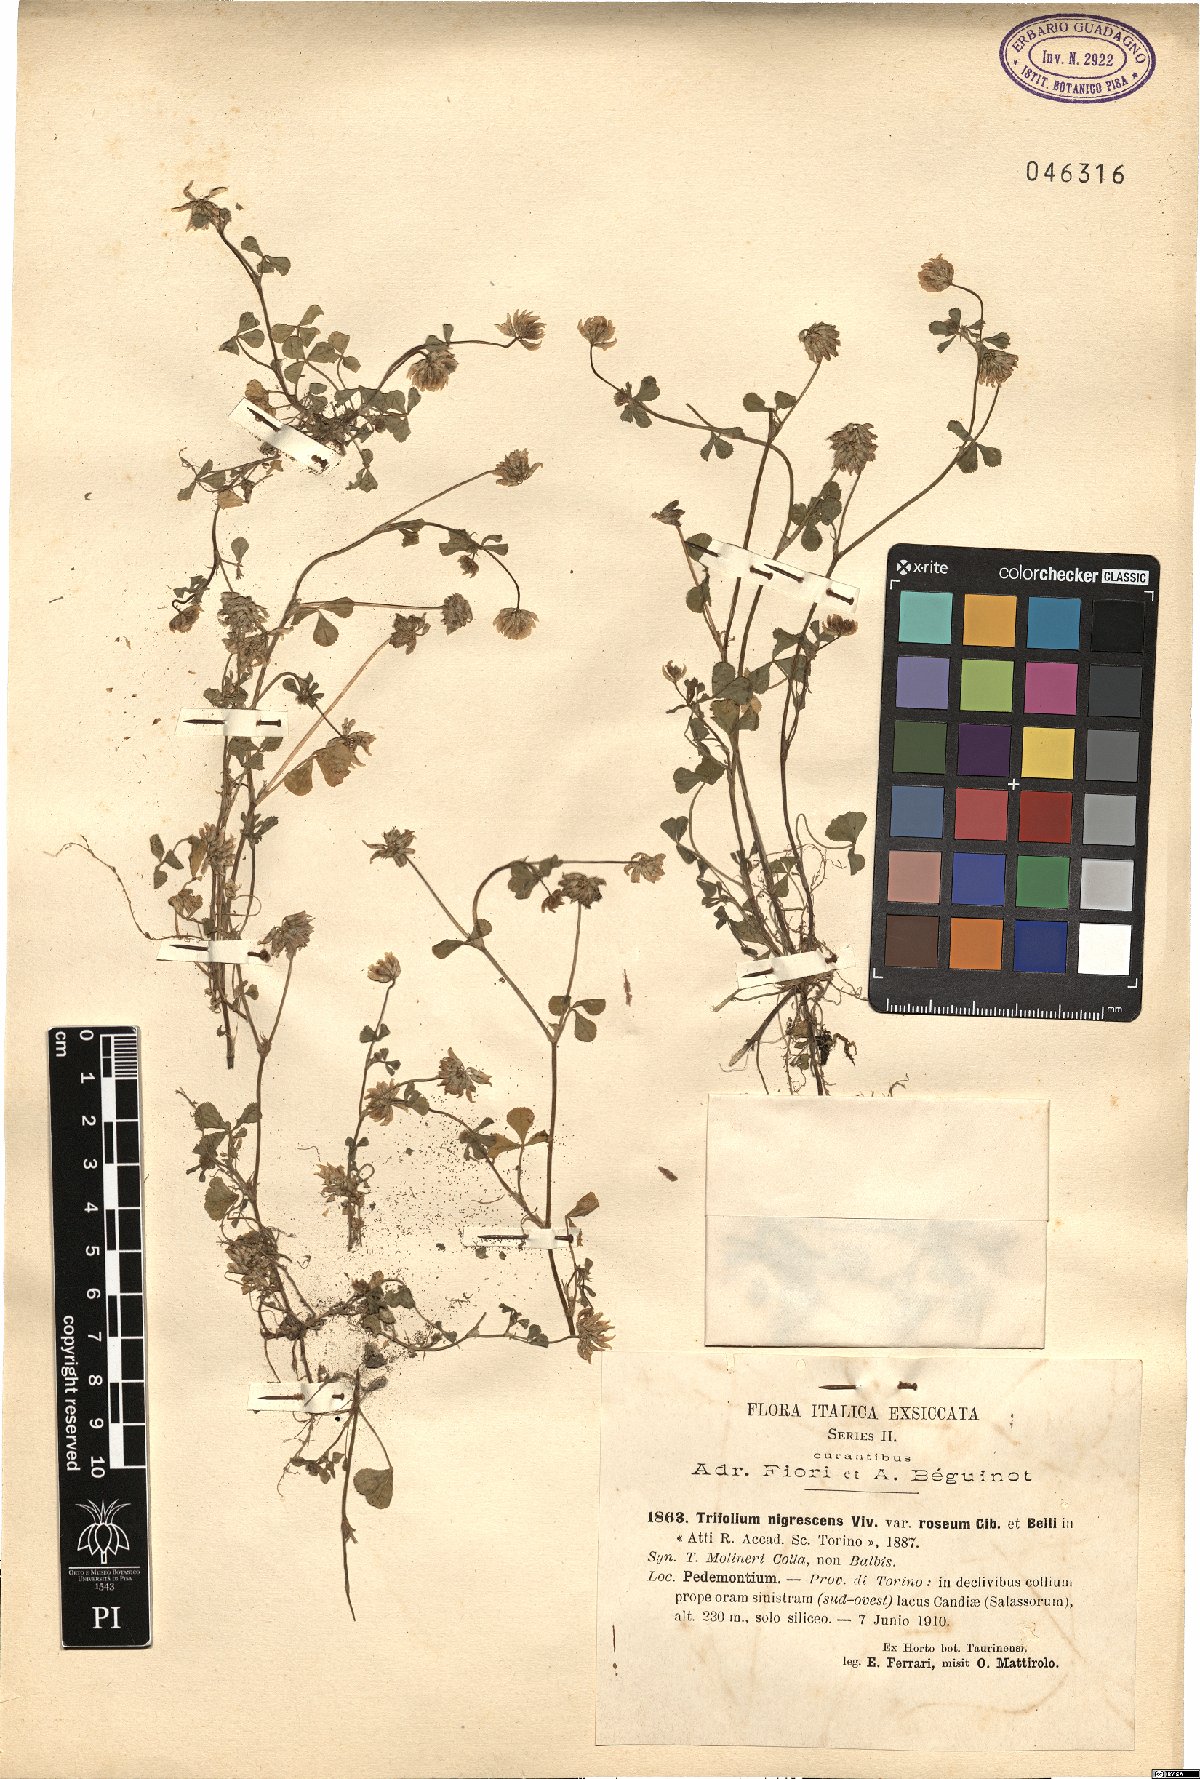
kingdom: Plantae
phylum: Tracheophyta
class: Magnoliopsida
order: Fabales
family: Fabaceae
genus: Trifolium
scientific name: Trifolium nigrescens
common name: Small white clover
